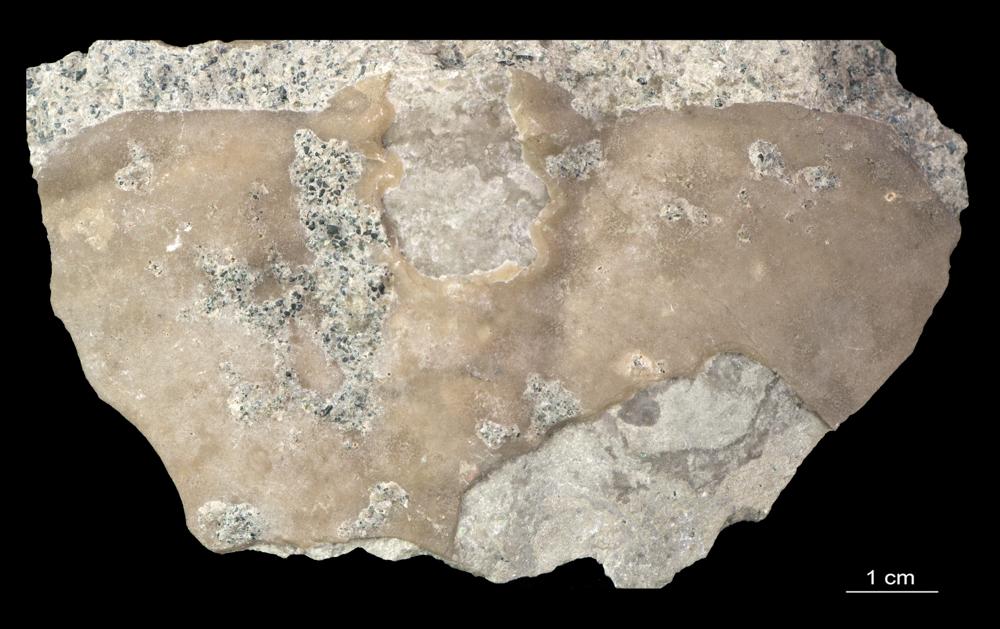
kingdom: Animalia
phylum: Arthropoda
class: Trilobita
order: Asaphida
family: Asaphidae
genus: Megistaspis
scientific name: Megistaspis
